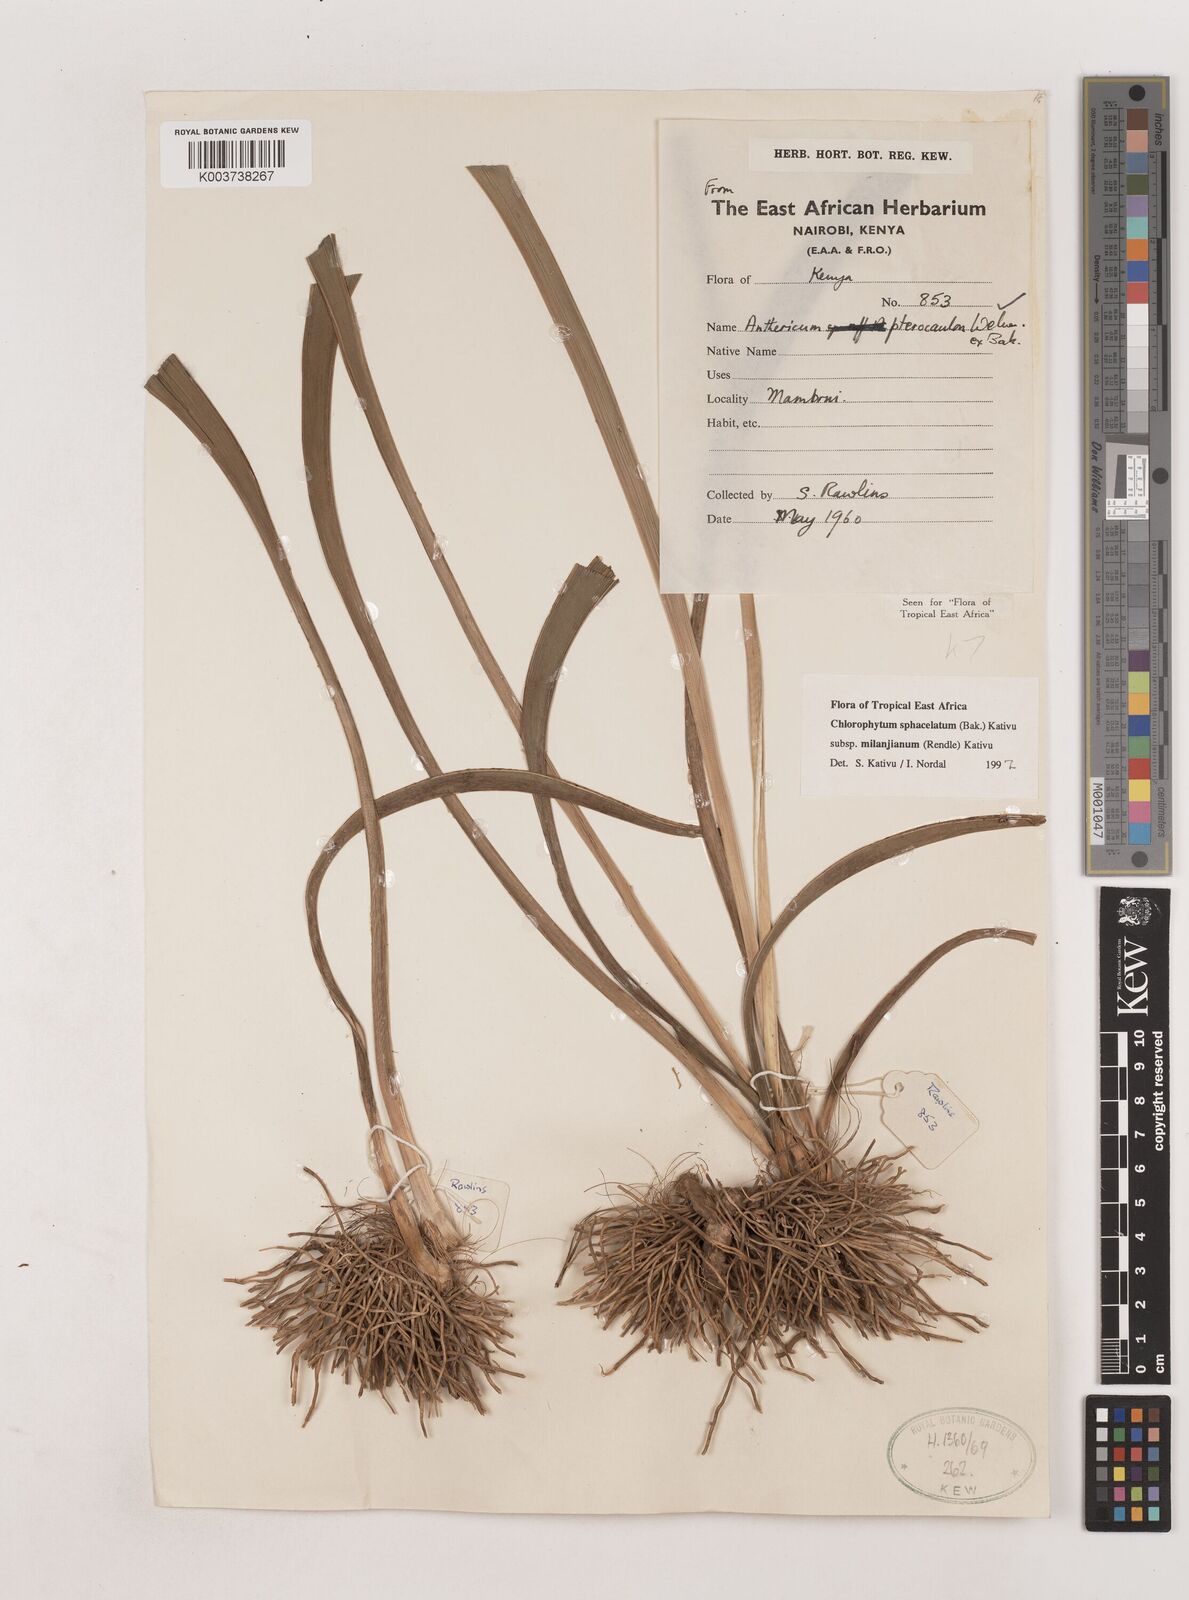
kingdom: Plantae
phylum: Tracheophyta
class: Liliopsida
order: Asparagales
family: Asparagaceae
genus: Chlorophytum
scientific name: Chlorophytum sphacelatum
